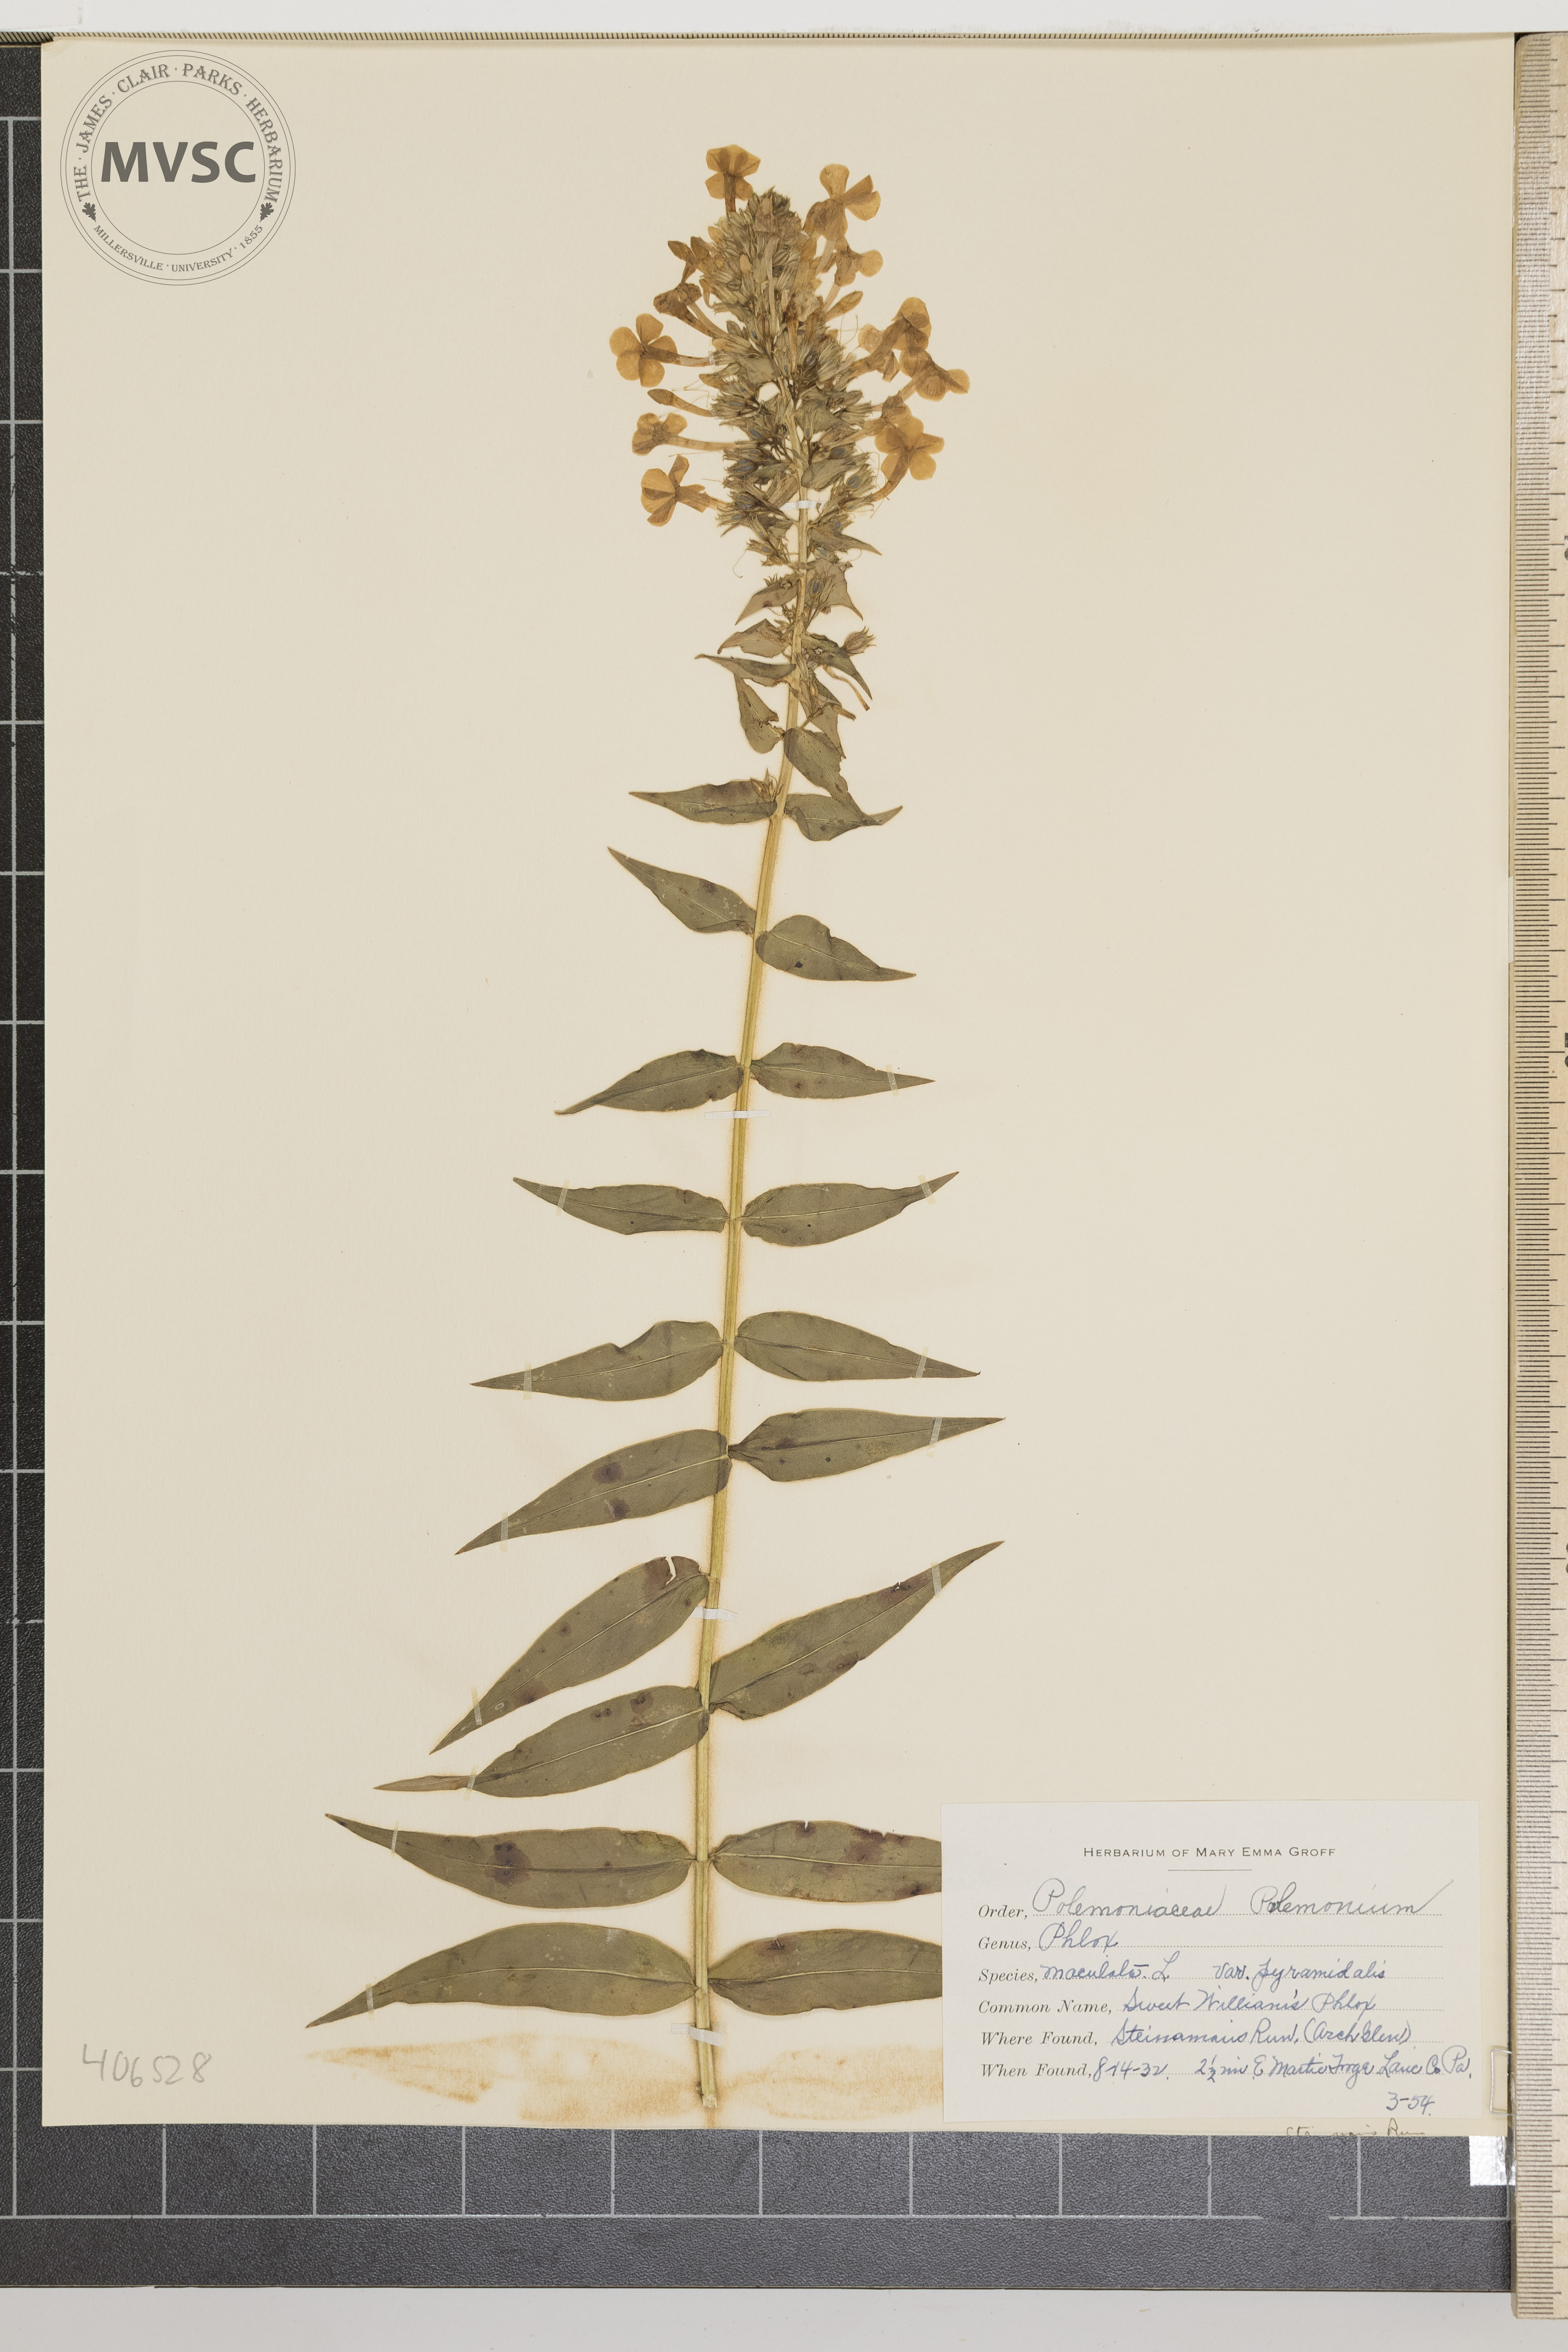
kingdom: Plantae
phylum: Tracheophyta
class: Magnoliopsida
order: Ericales
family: Polemoniaceae
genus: Phlox
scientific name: Phlox maculata
